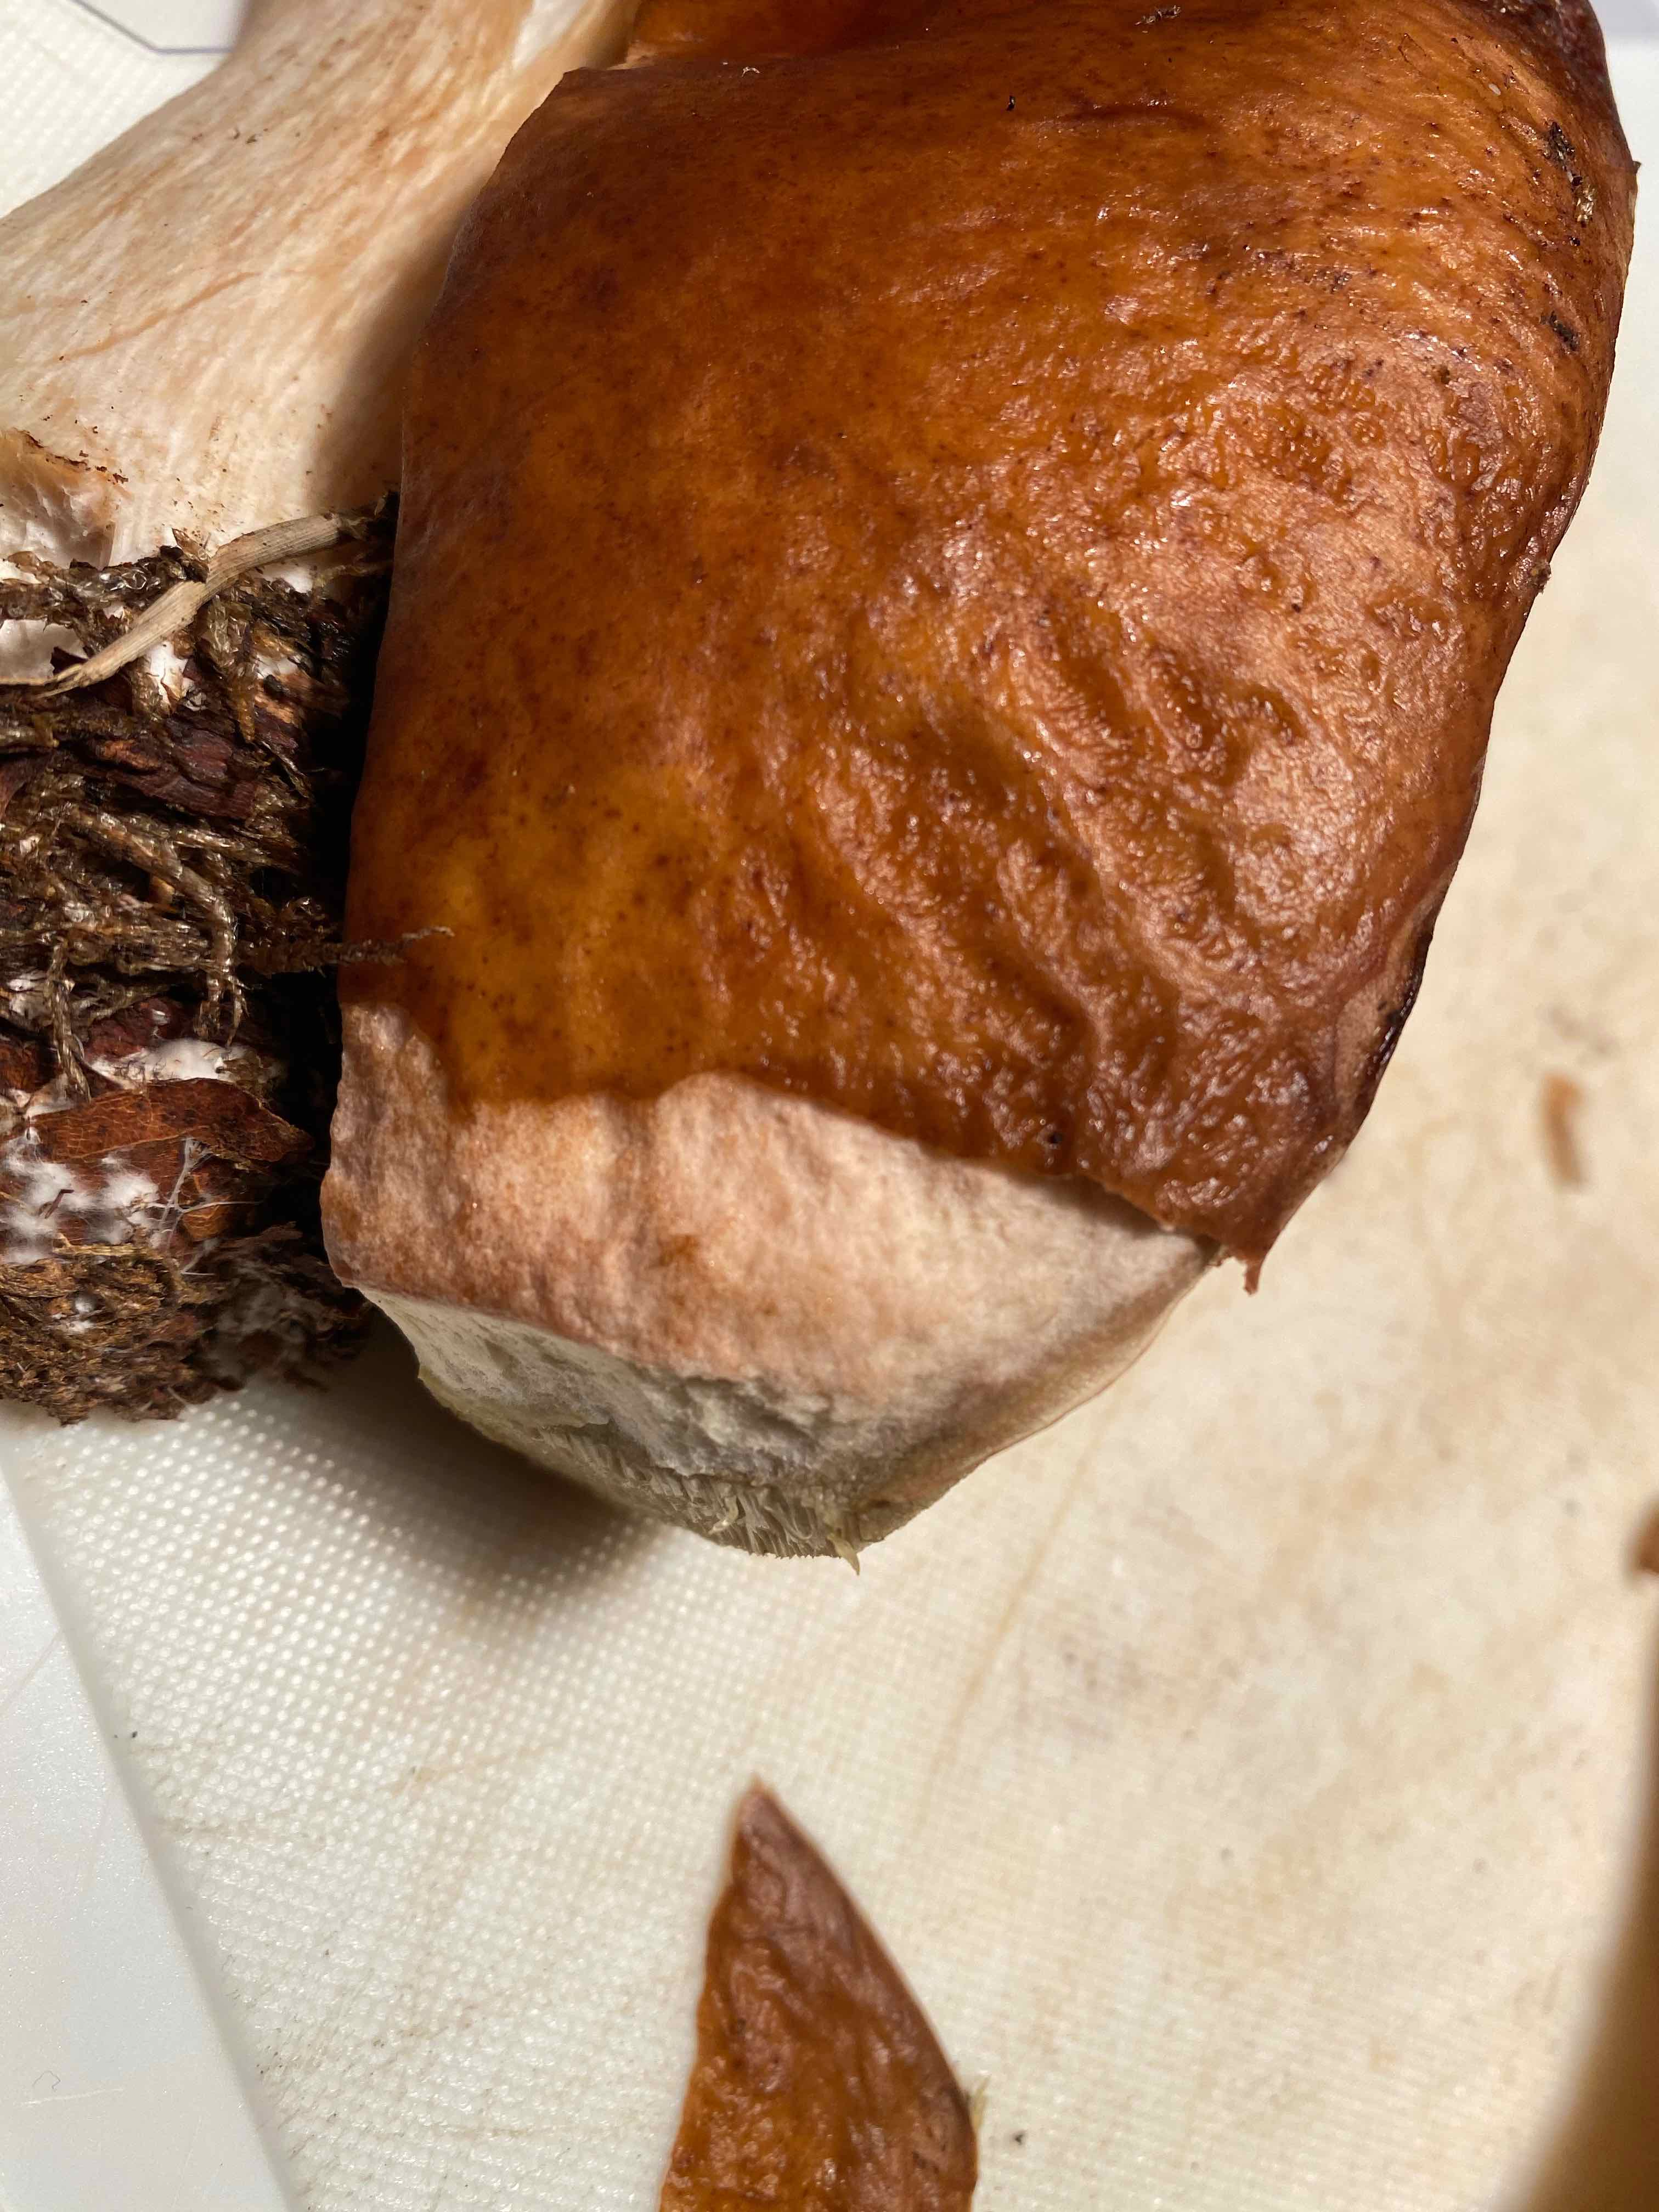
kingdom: Fungi
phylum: Basidiomycota
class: Agaricomycetes
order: Boletales
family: Boletaceae
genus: Boletus
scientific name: Boletus edulis
